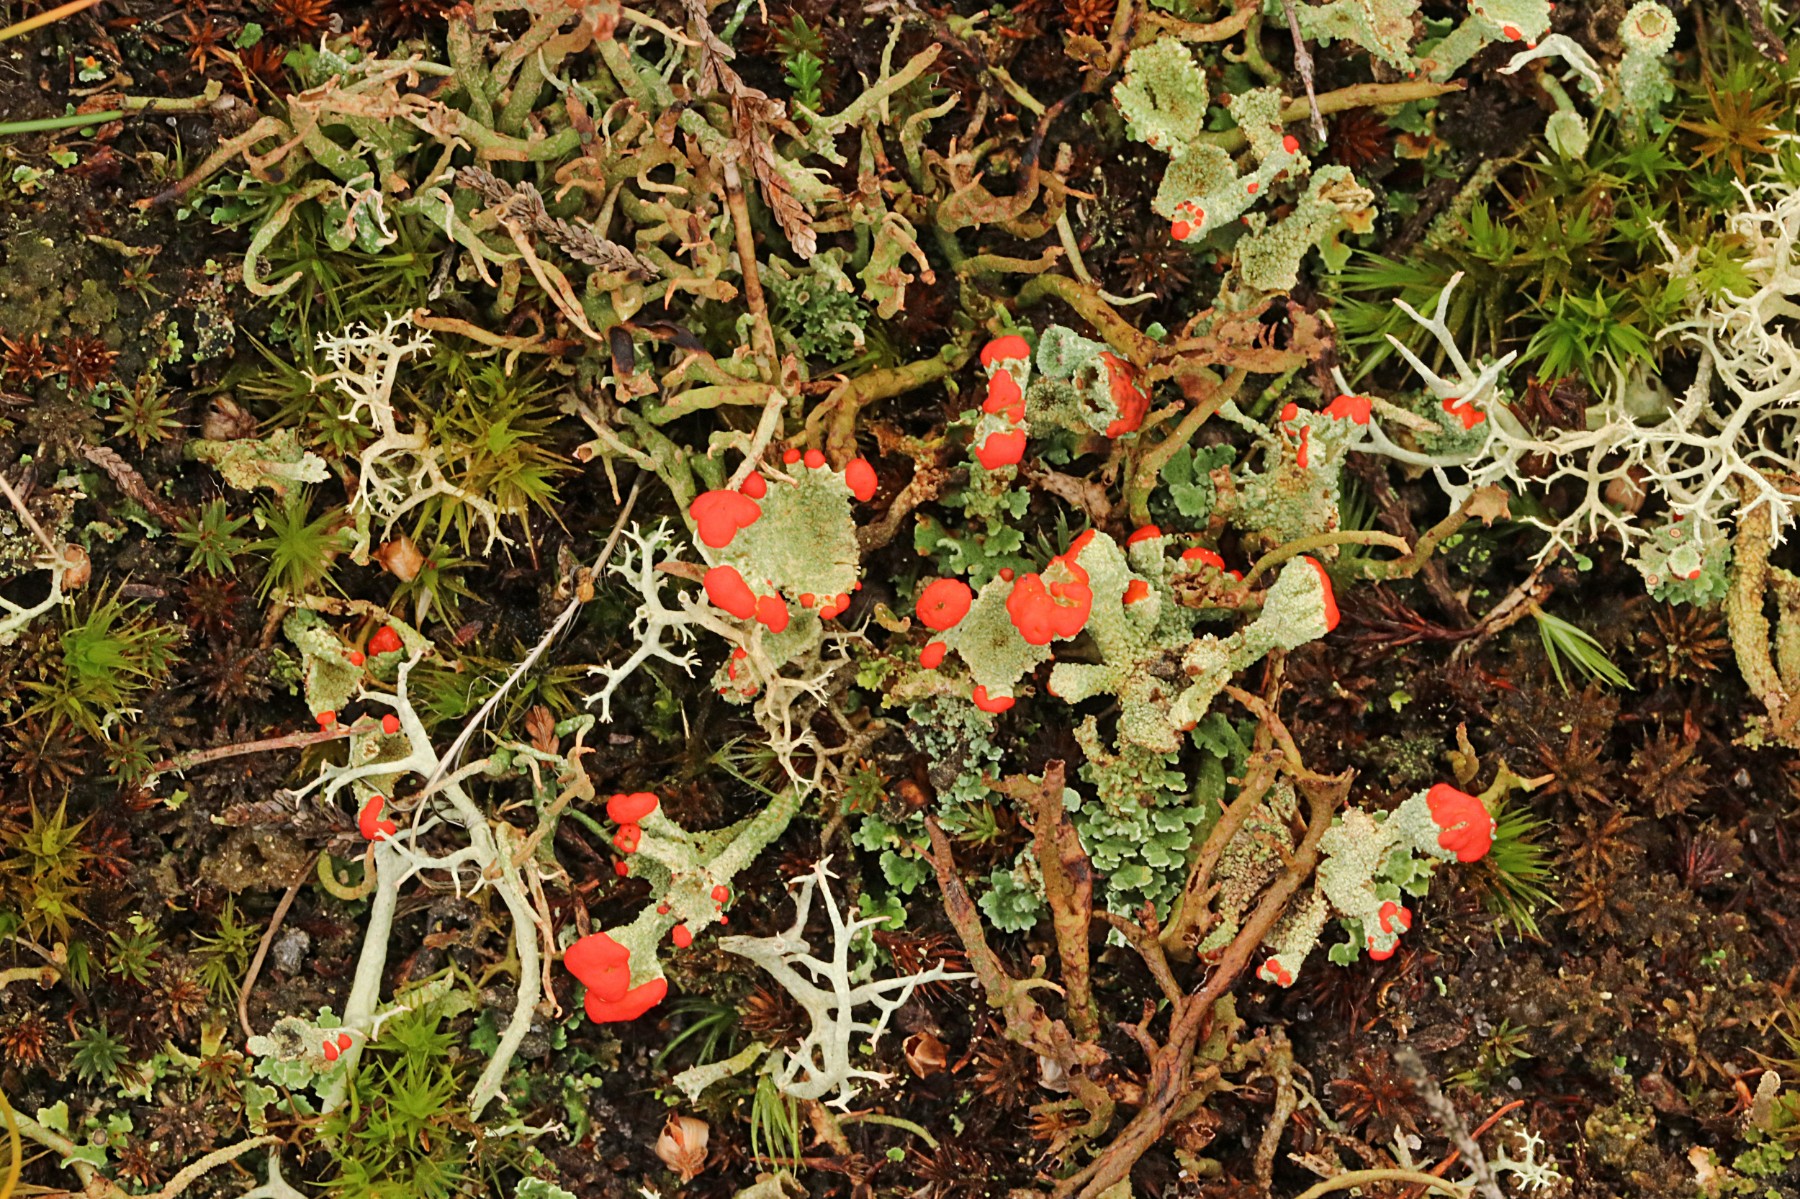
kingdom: Fungi
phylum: Ascomycota
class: Lecanoromycetes
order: Lecanorales
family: Cladoniaceae
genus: Cladonia
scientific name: Cladonia diversa
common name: rød bægerlav
